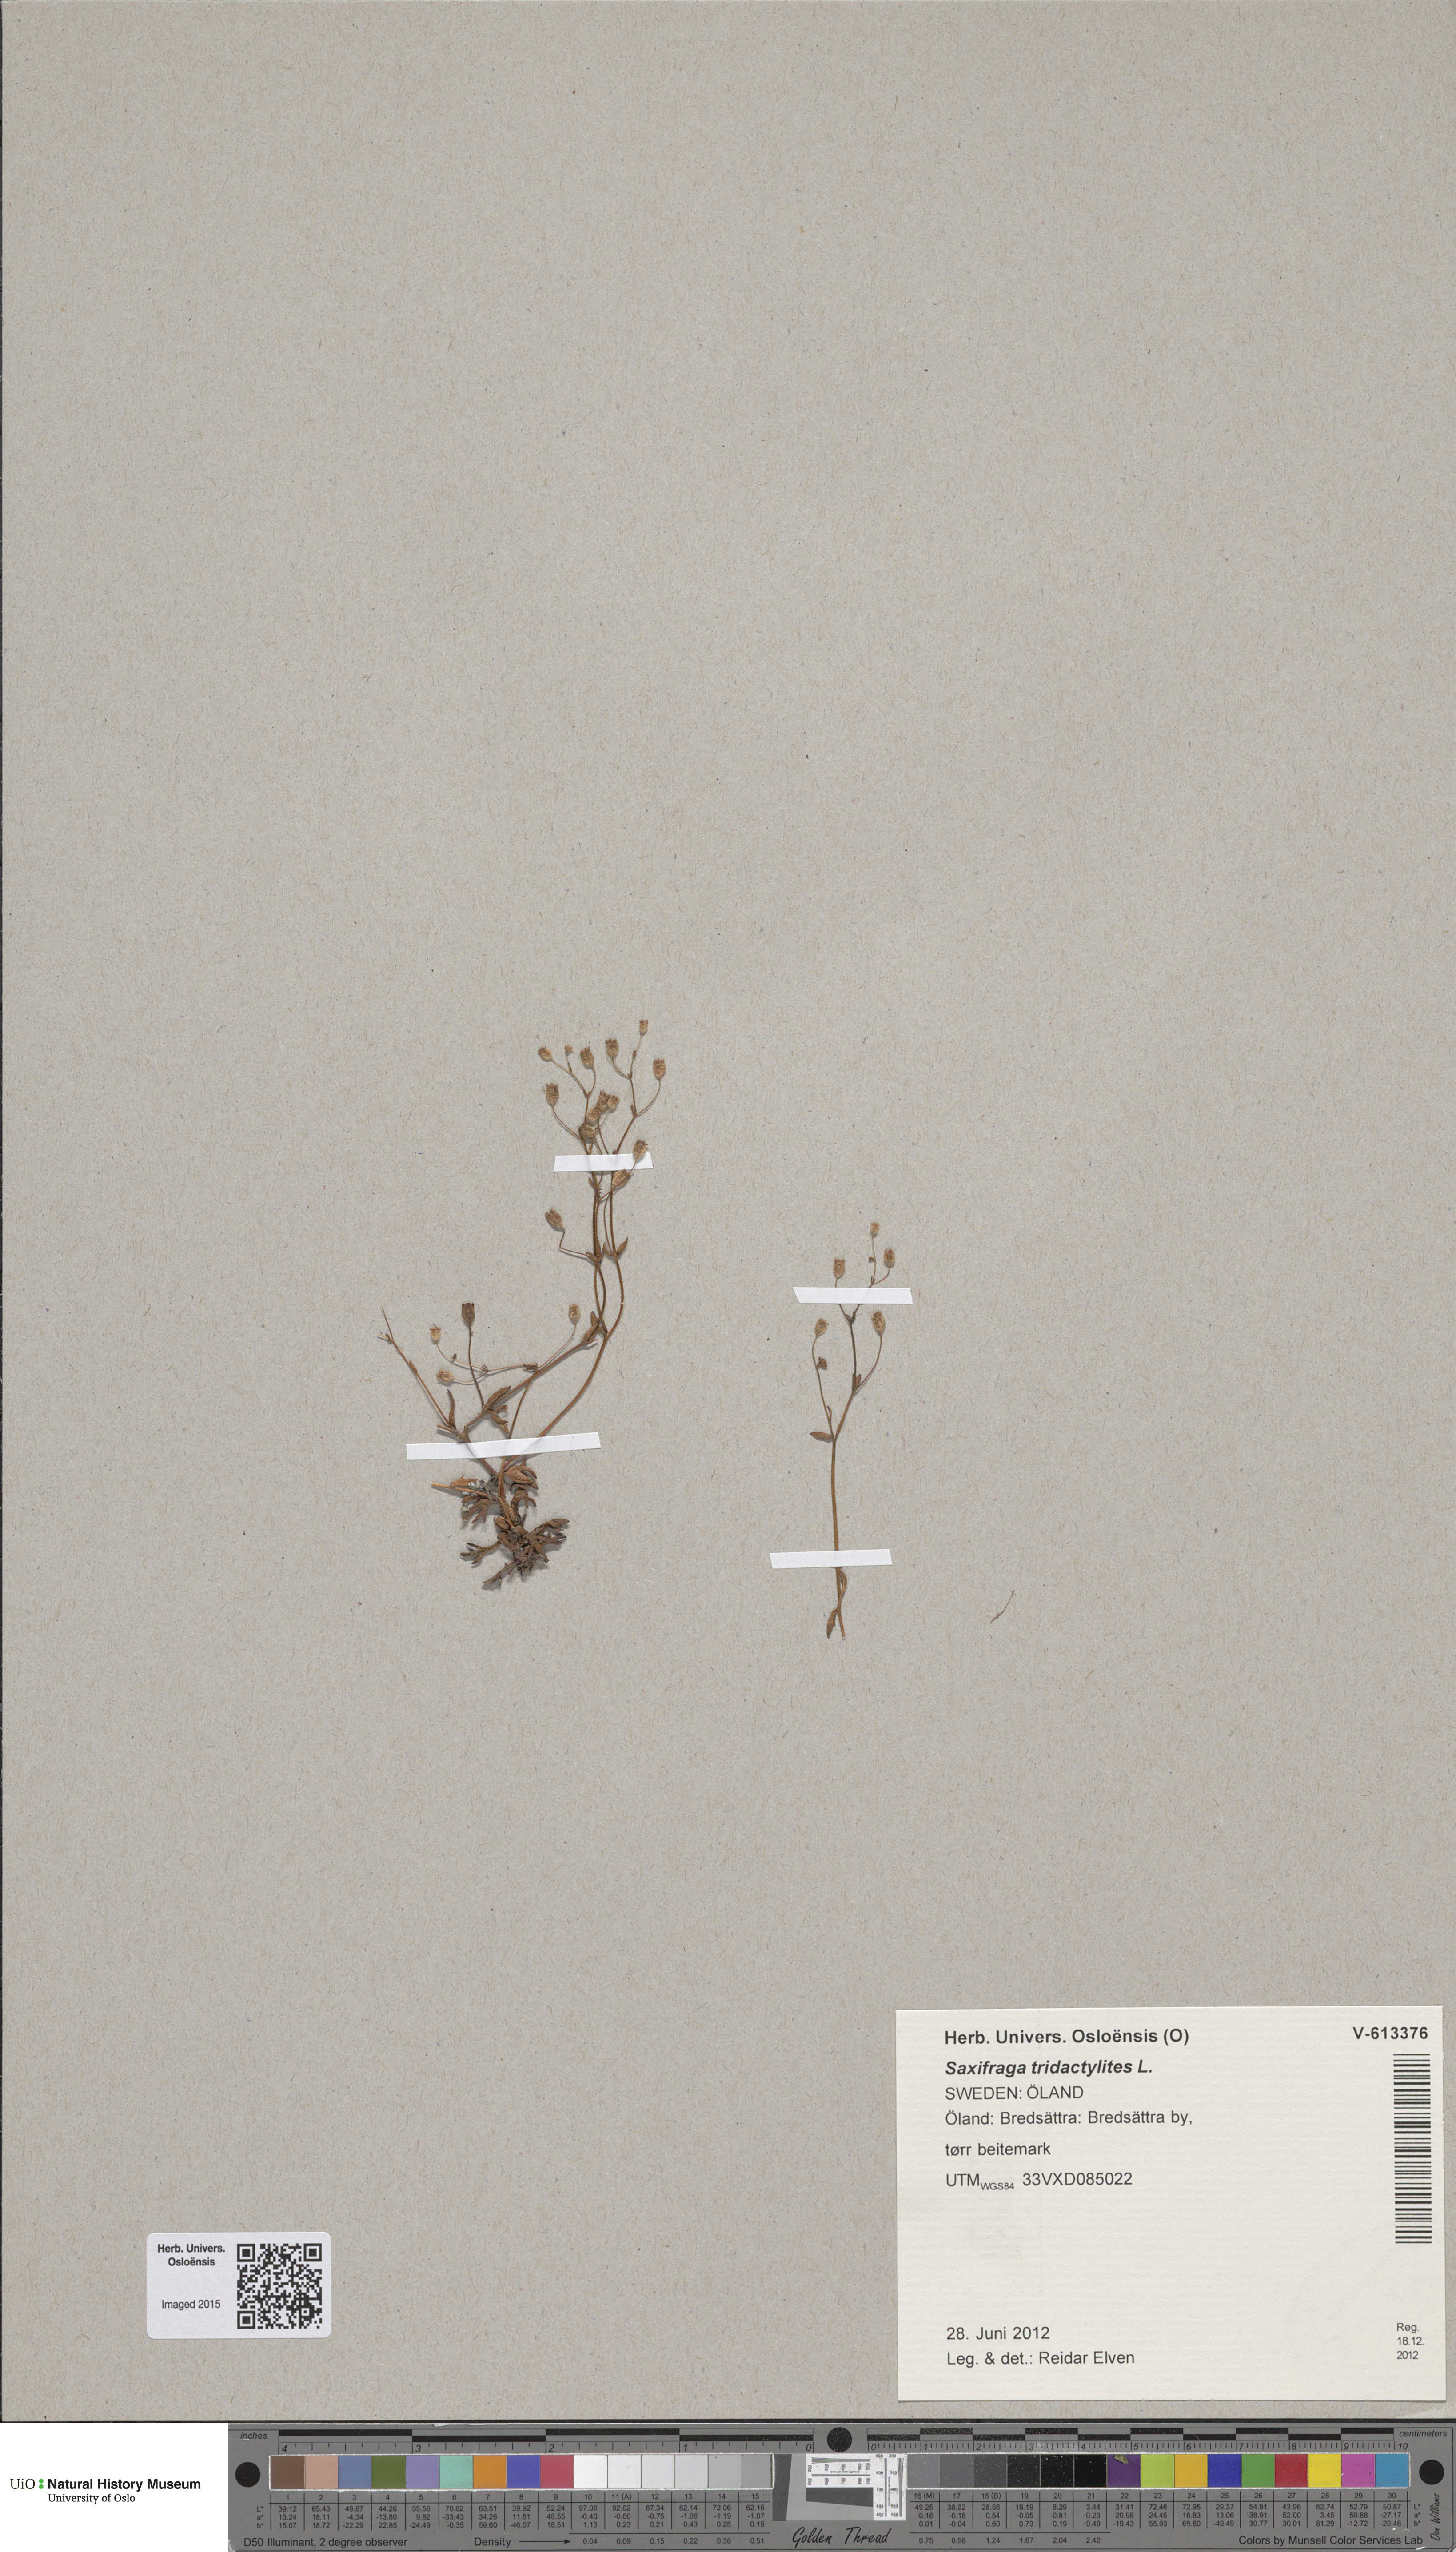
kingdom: Plantae
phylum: Tracheophyta
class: Magnoliopsida
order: Saxifragales
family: Saxifragaceae
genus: Saxifraga
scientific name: Saxifraga tridactylites
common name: Rue-leaved saxifrage
